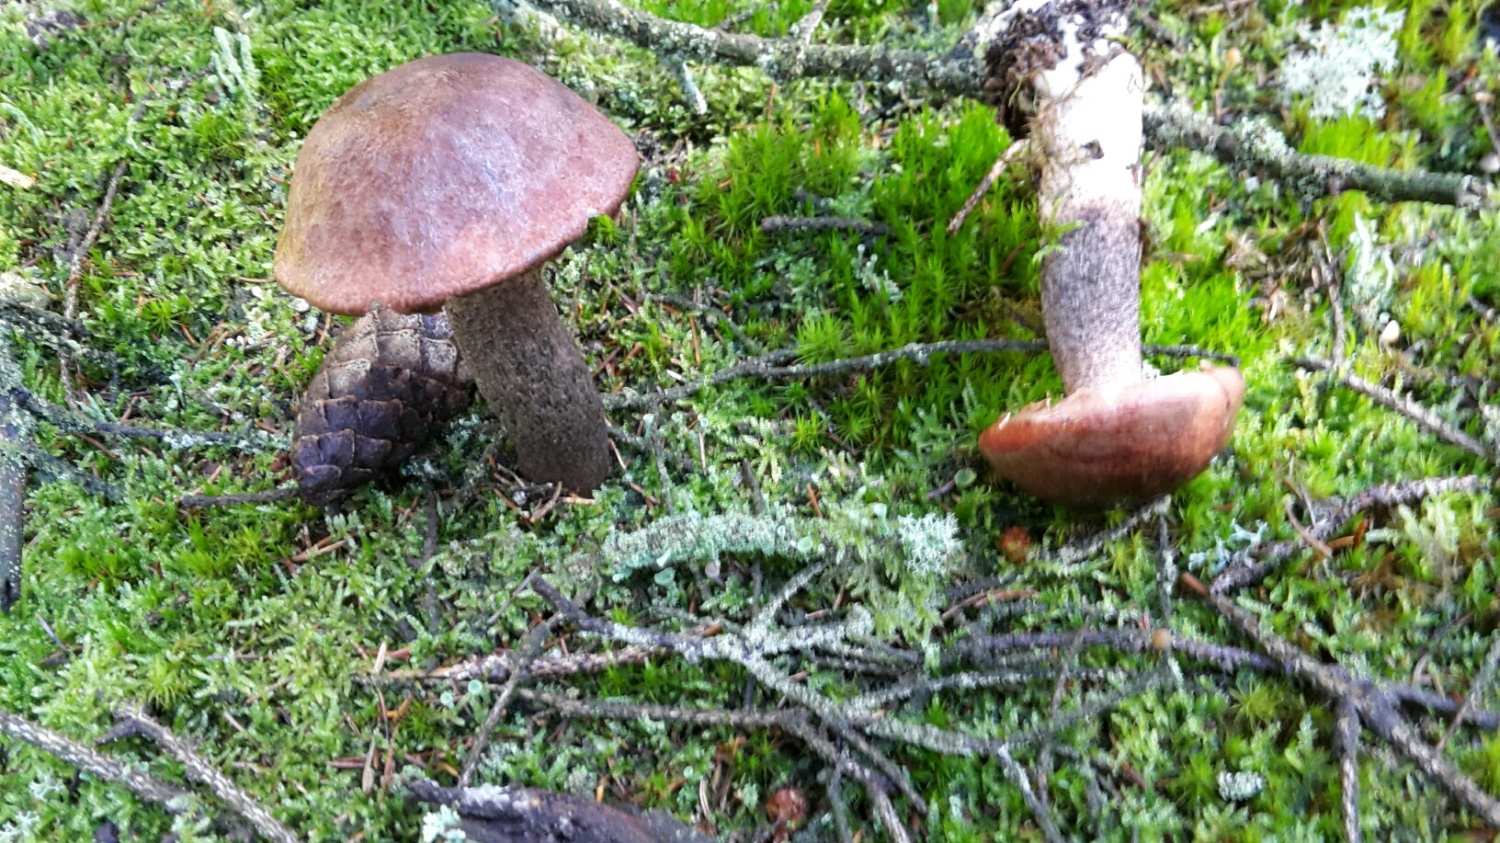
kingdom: Fungi
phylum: Basidiomycota
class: Agaricomycetes
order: Boletales
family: Boletaceae
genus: Leccinum
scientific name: Leccinum vulpinum
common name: fyrre-skælrørhat
